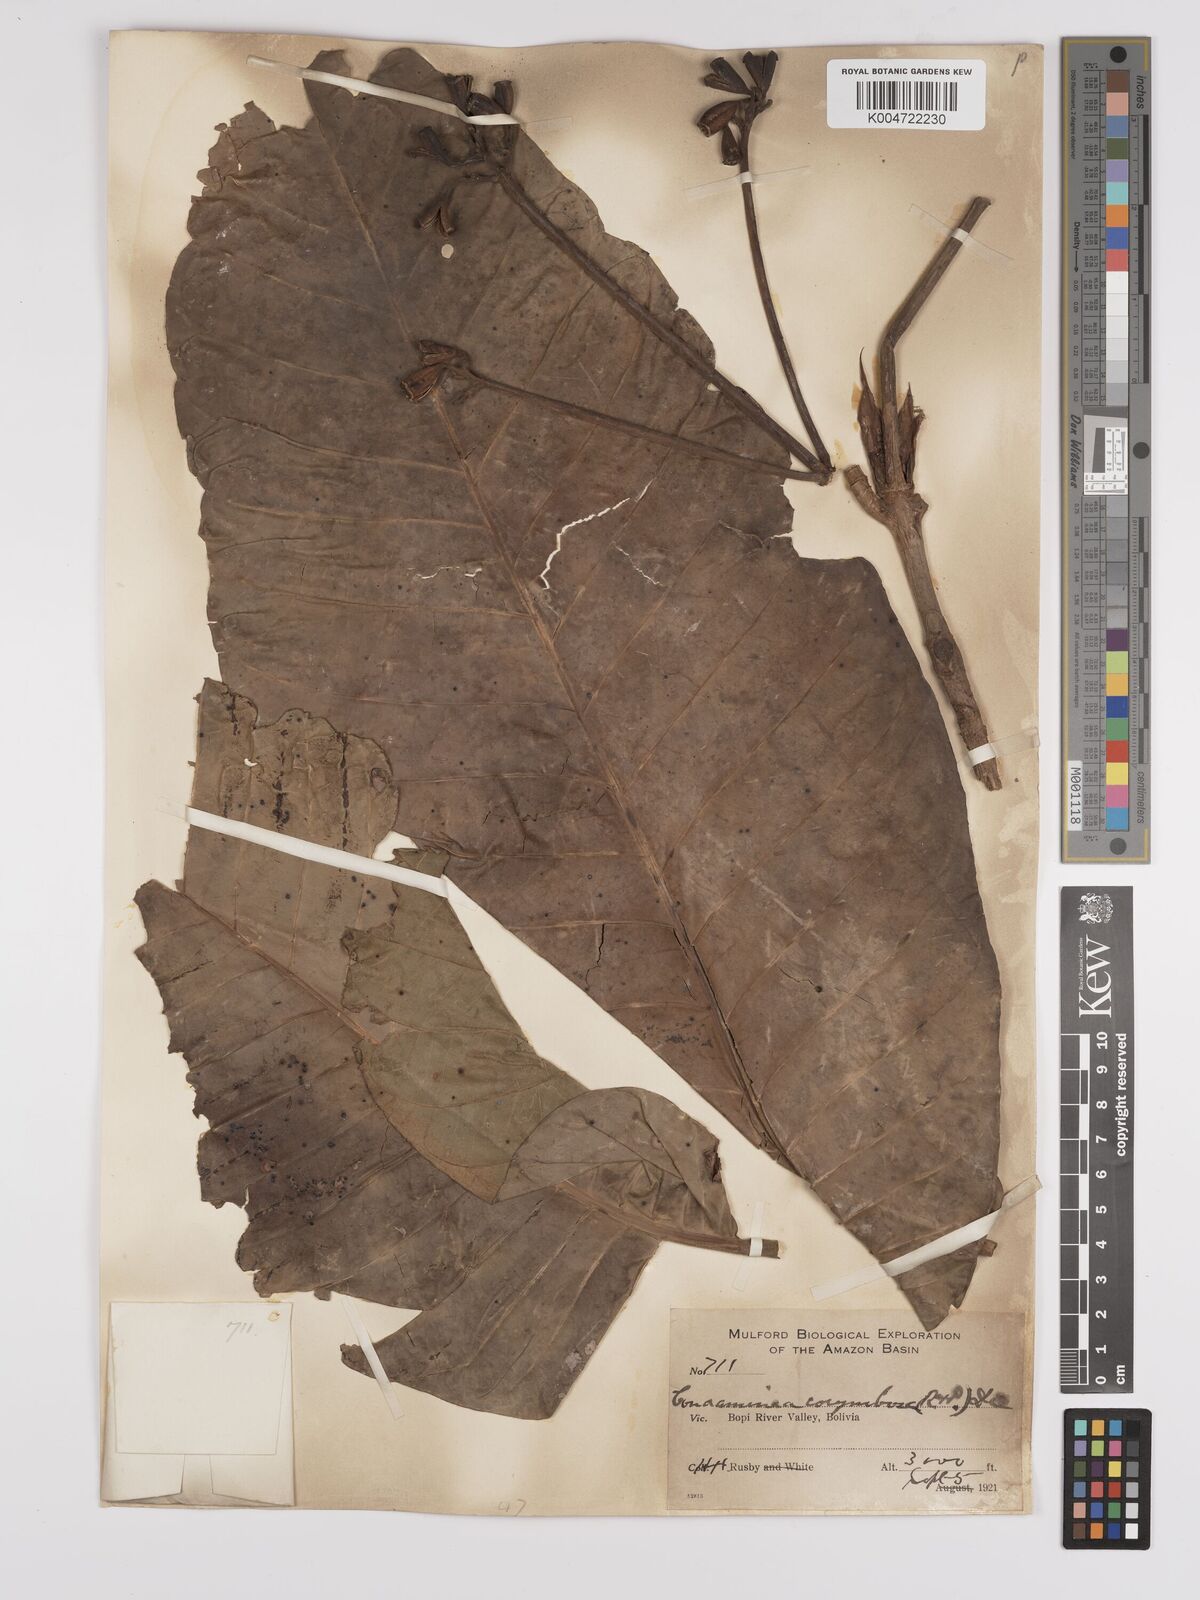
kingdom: Plantae
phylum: Tracheophyta
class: Magnoliopsida
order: Gentianales
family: Rubiaceae
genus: Condaminea
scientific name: Condaminea corymbosa
